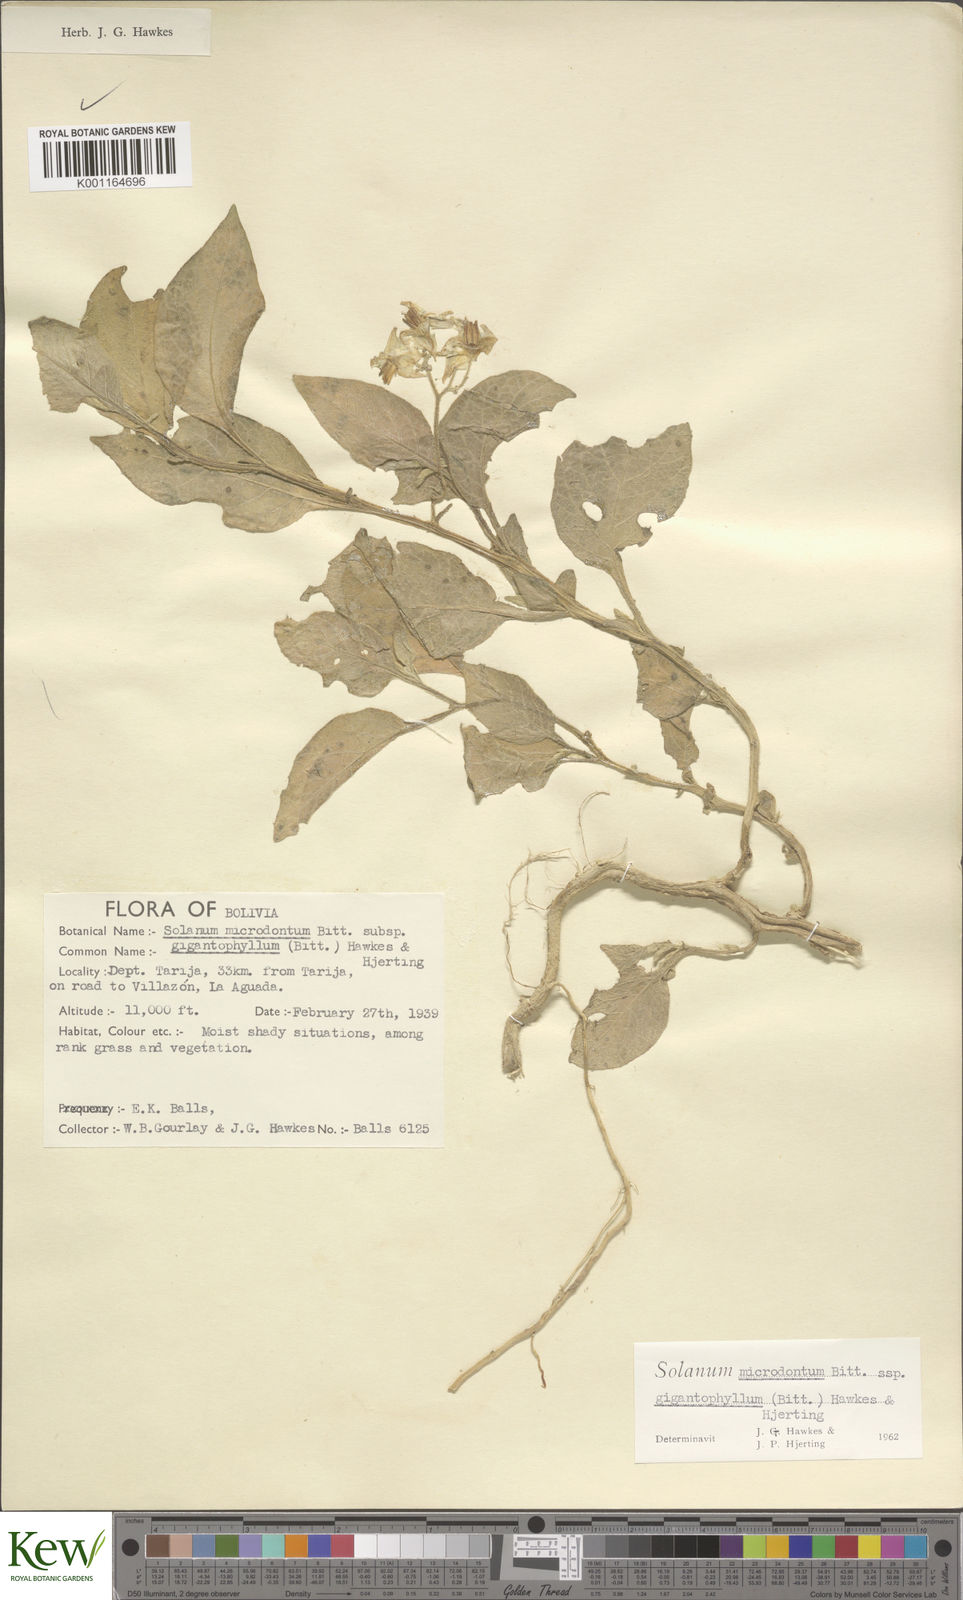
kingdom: Plantae
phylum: Tracheophyta
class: Magnoliopsida
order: Solanales
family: Solanaceae
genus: Solanum
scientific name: Solanum microdontum
